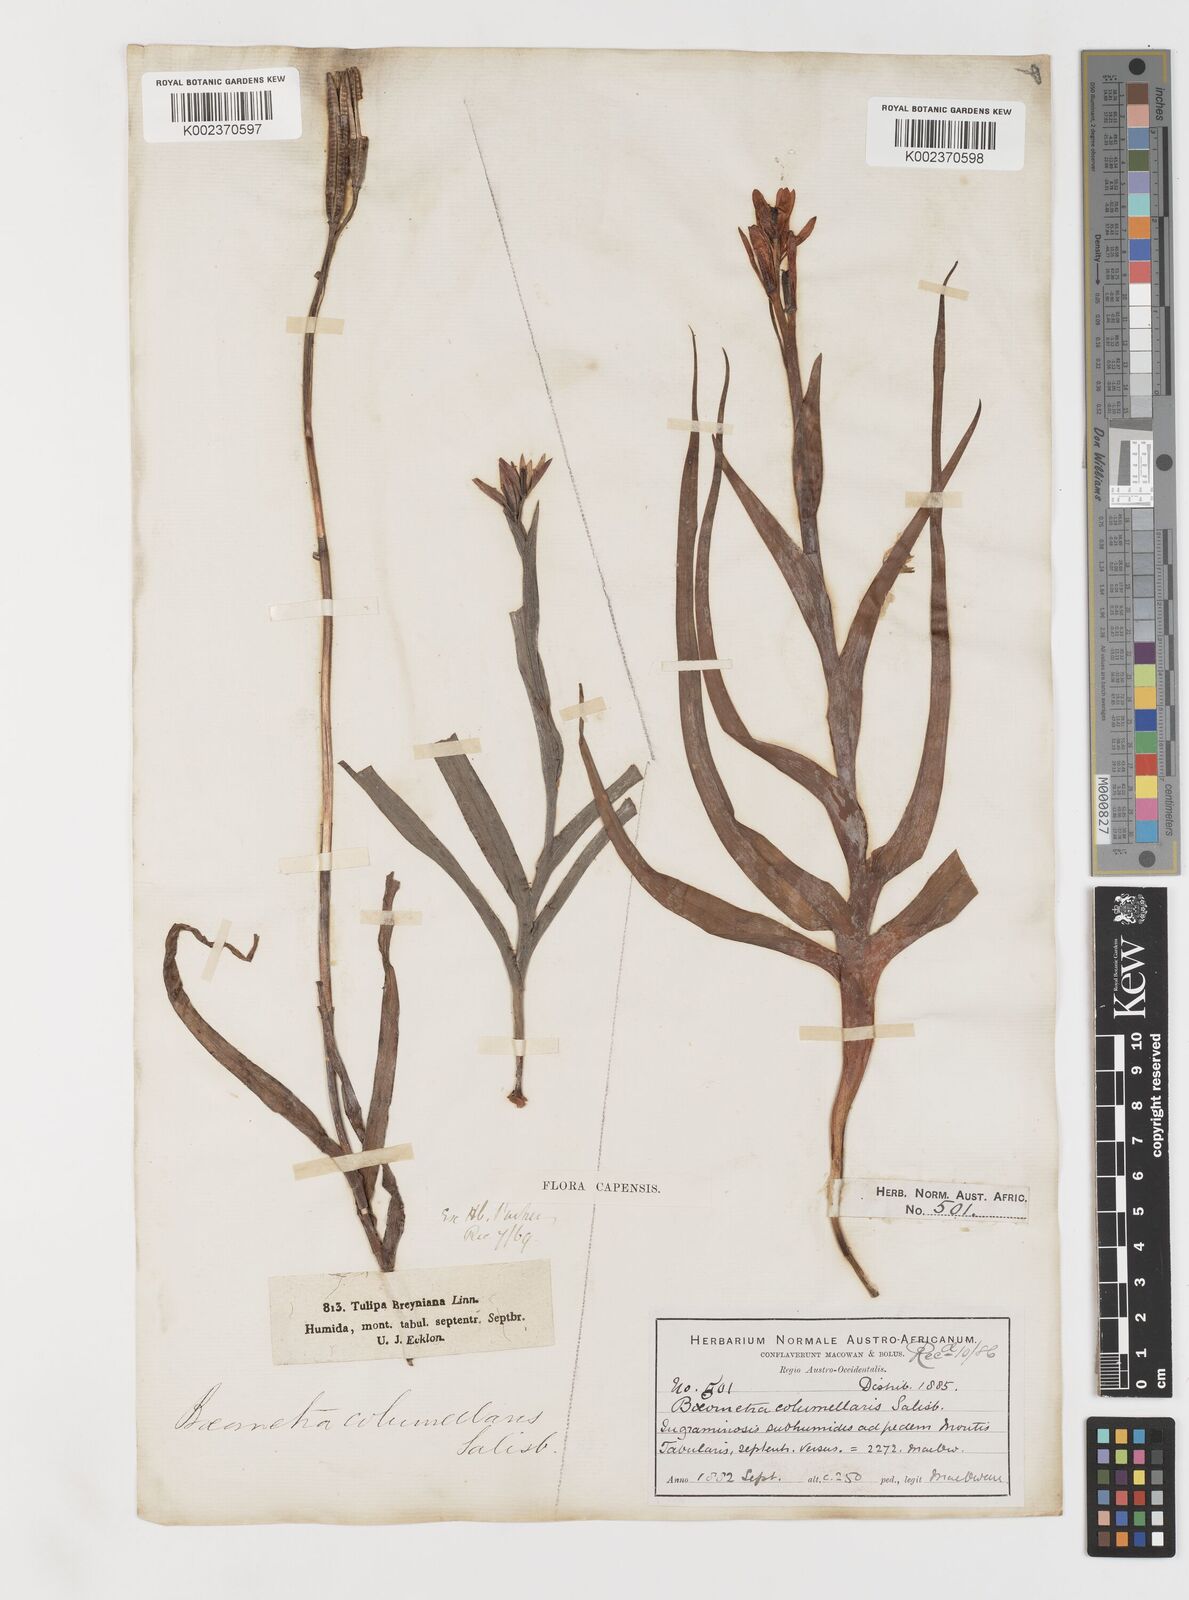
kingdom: Plantae
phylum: Tracheophyta
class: Liliopsida
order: Liliales
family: Colchicaceae
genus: Baeometra
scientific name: Baeometra uniflora
